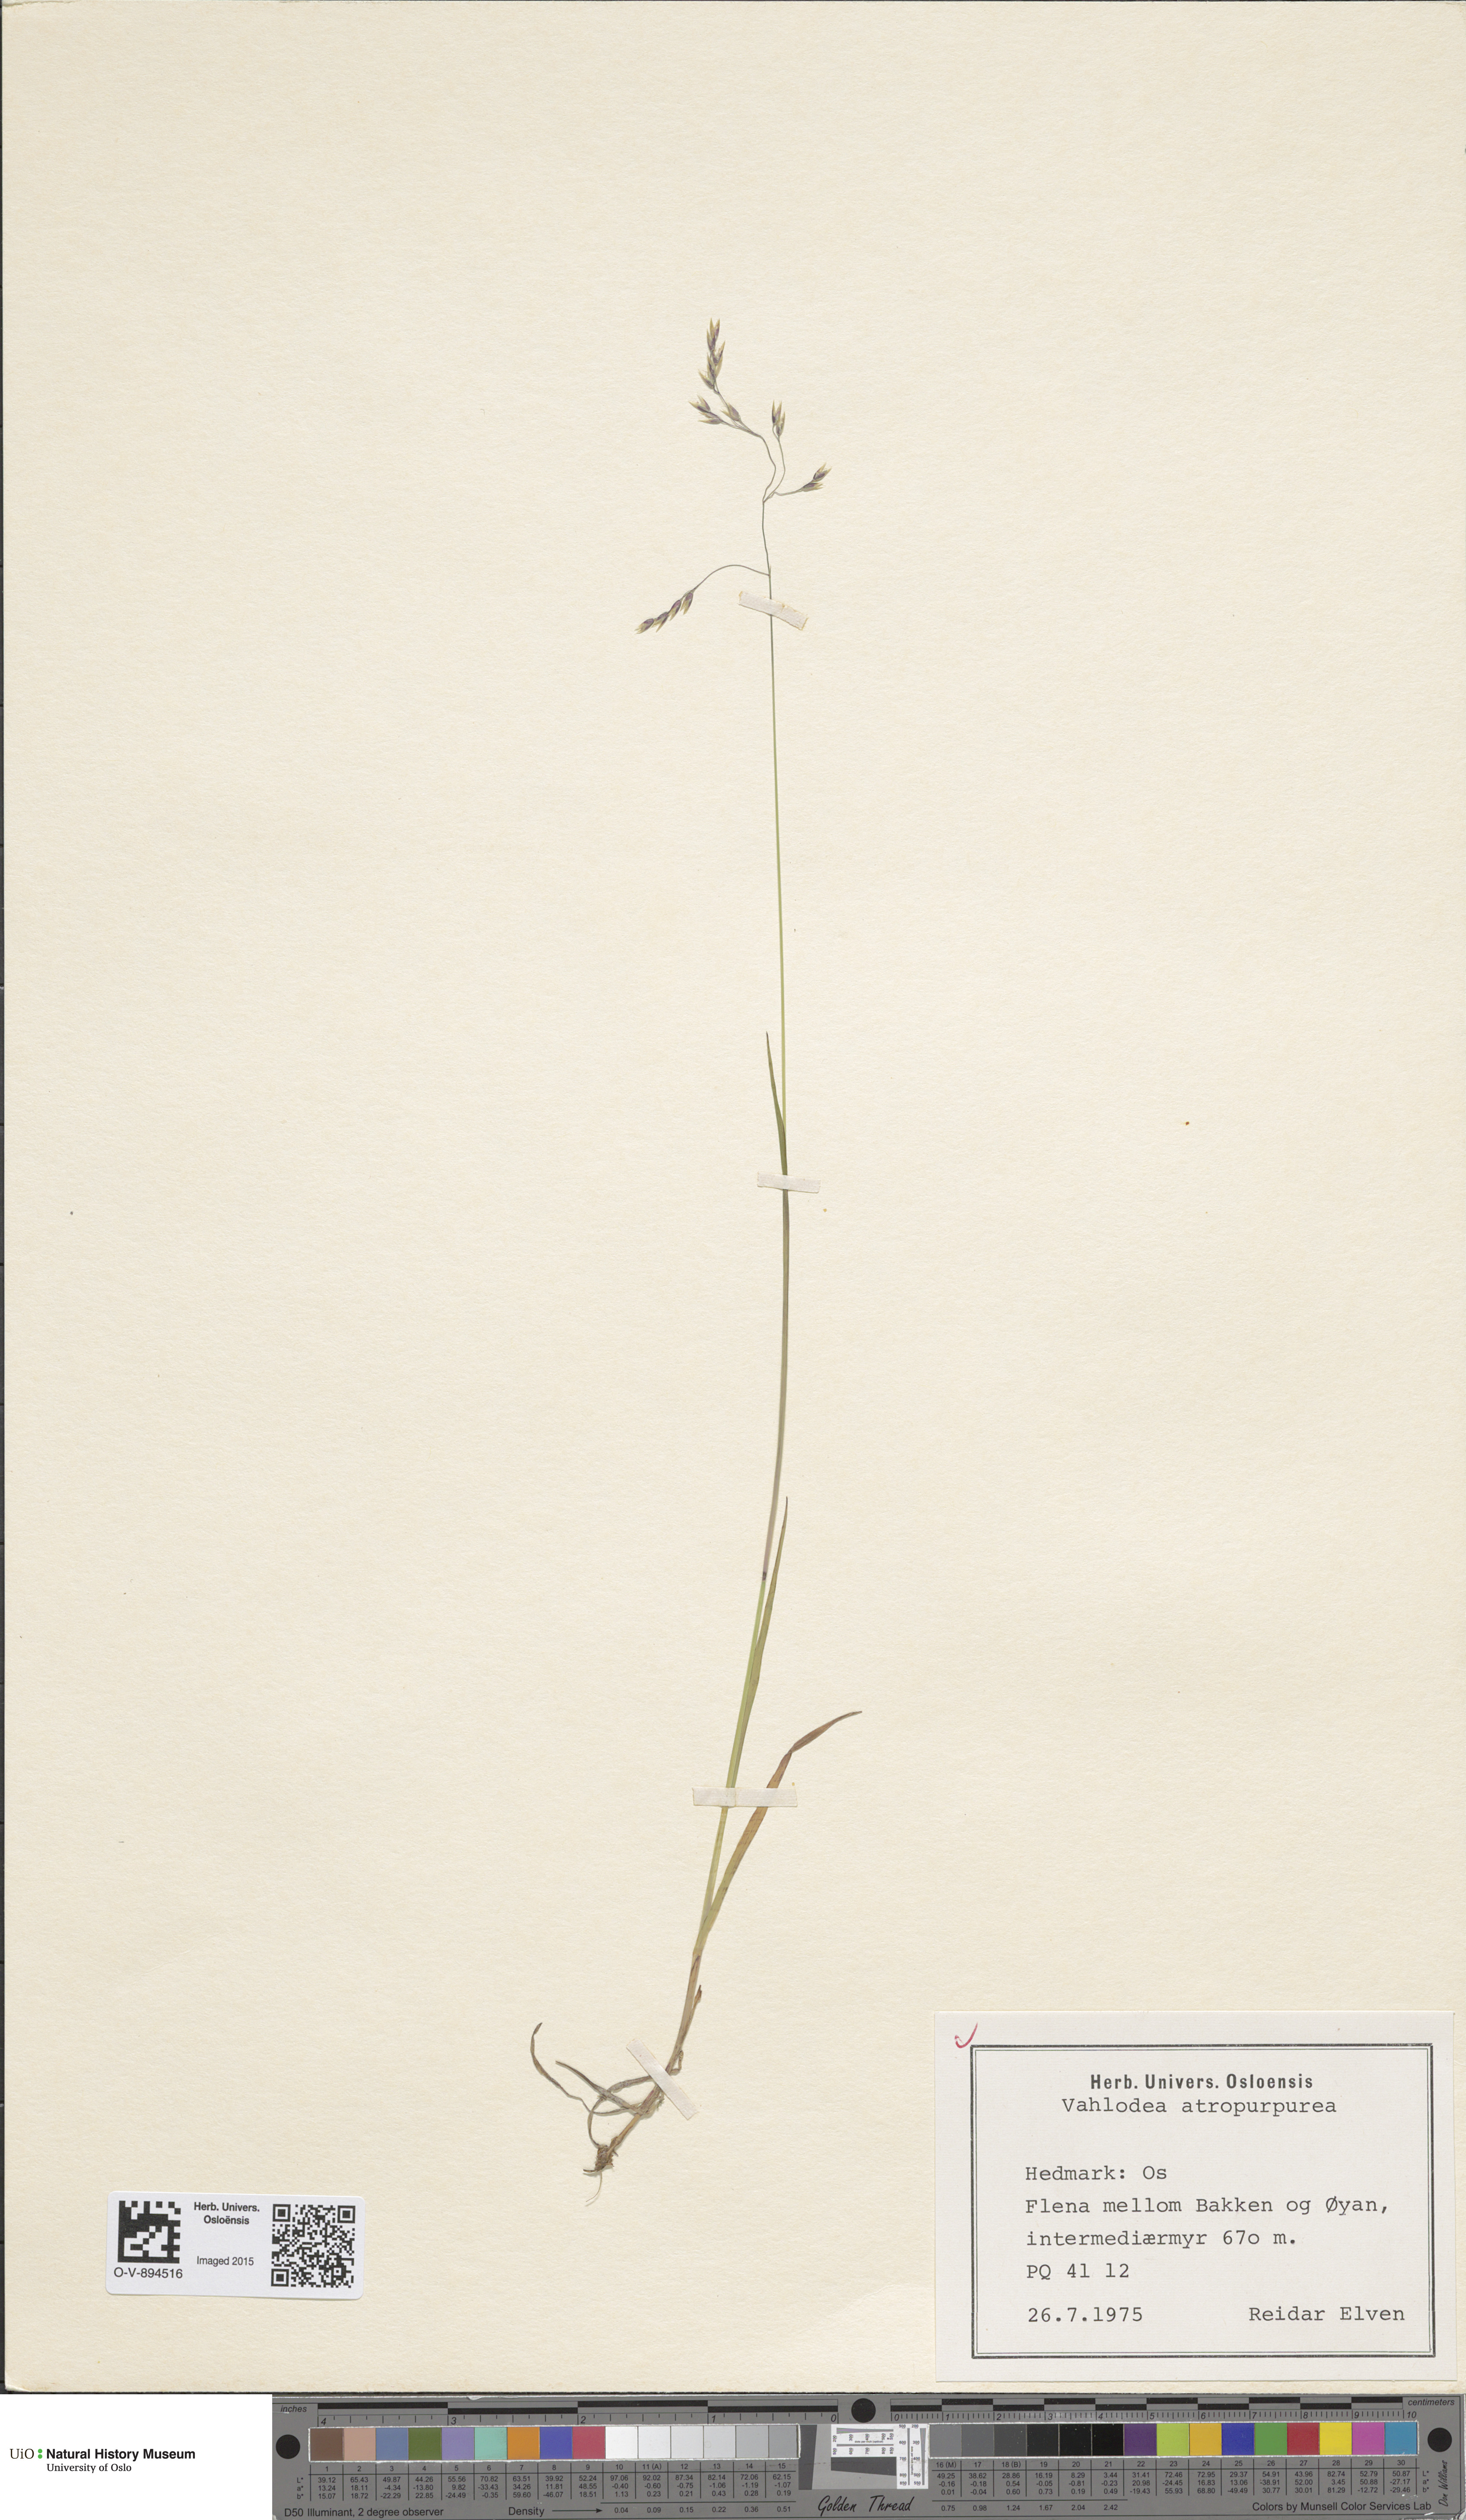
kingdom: Plantae
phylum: Tracheophyta
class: Liliopsida
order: Poales
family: Poaceae
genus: Vahlodea
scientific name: Vahlodea atropurpurea
